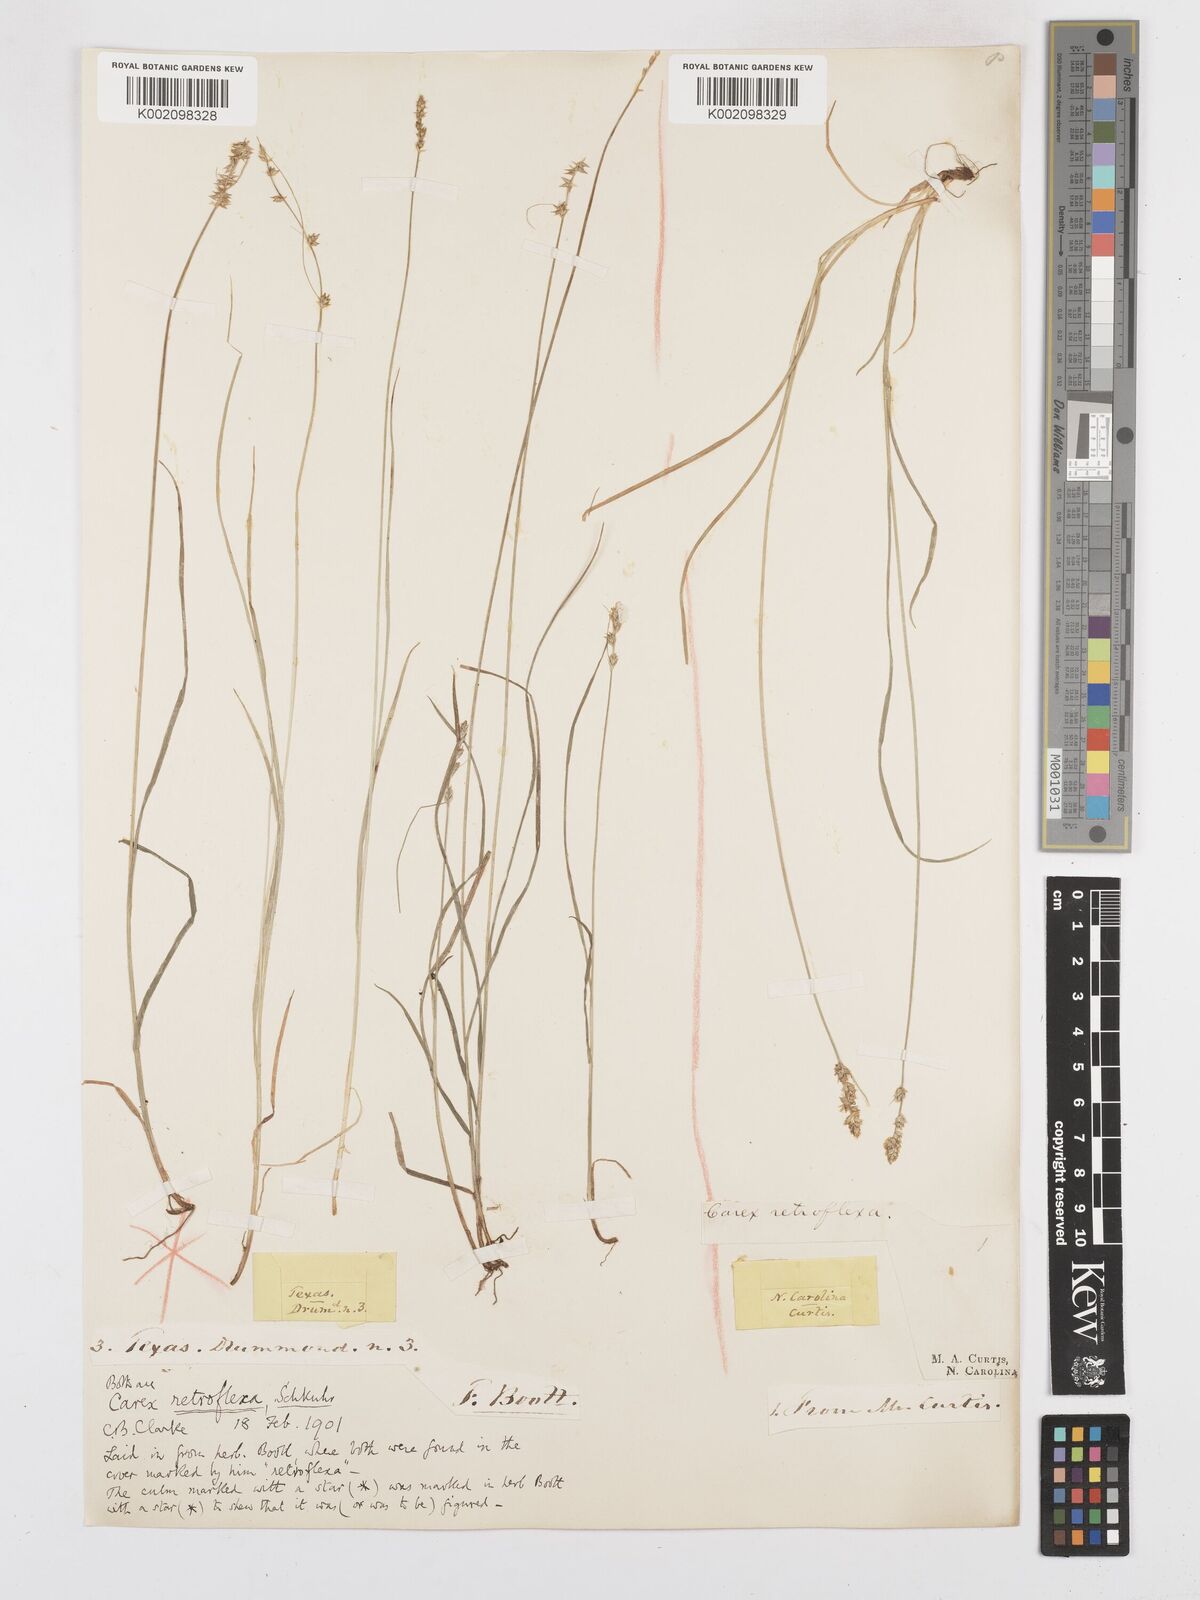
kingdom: Plantae
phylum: Tracheophyta
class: Liliopsida
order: Poales
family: Cyperaceae
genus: Carex
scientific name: Carex texensis
